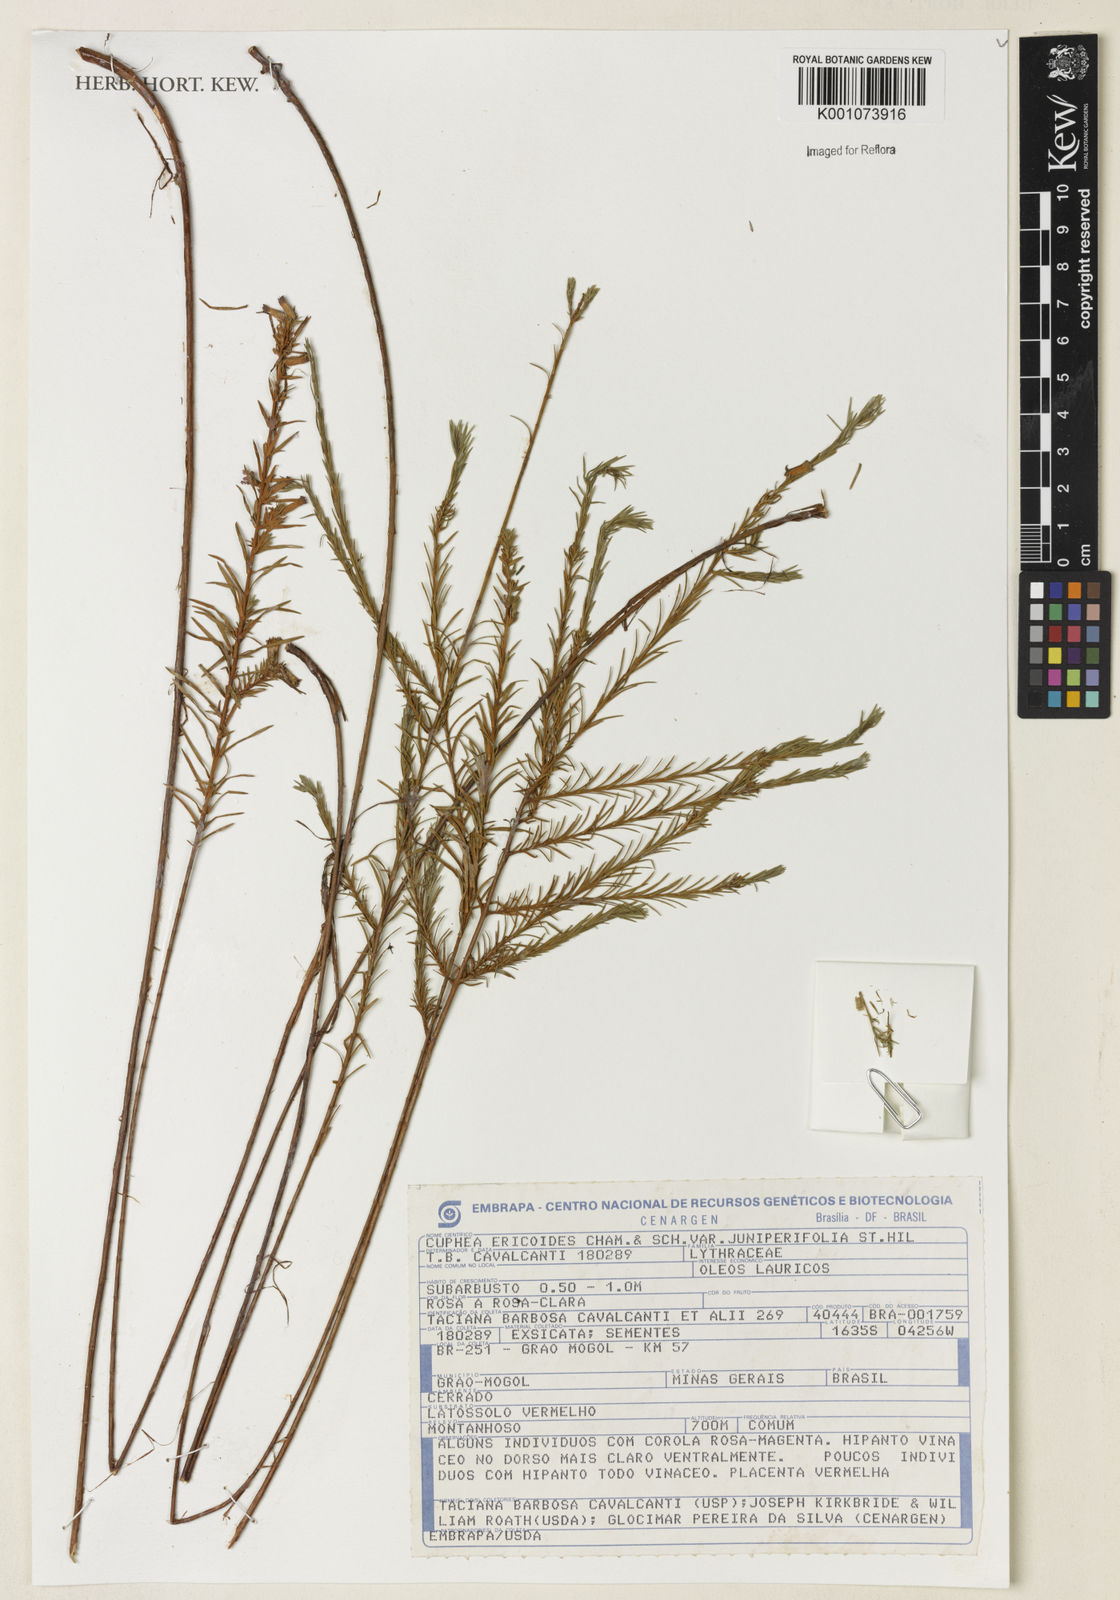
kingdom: Plantae
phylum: Tracheophyta
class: Magnoliopsida
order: Myrtales
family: Lythraceae
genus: Cuphea
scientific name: Cuphea ericoides
